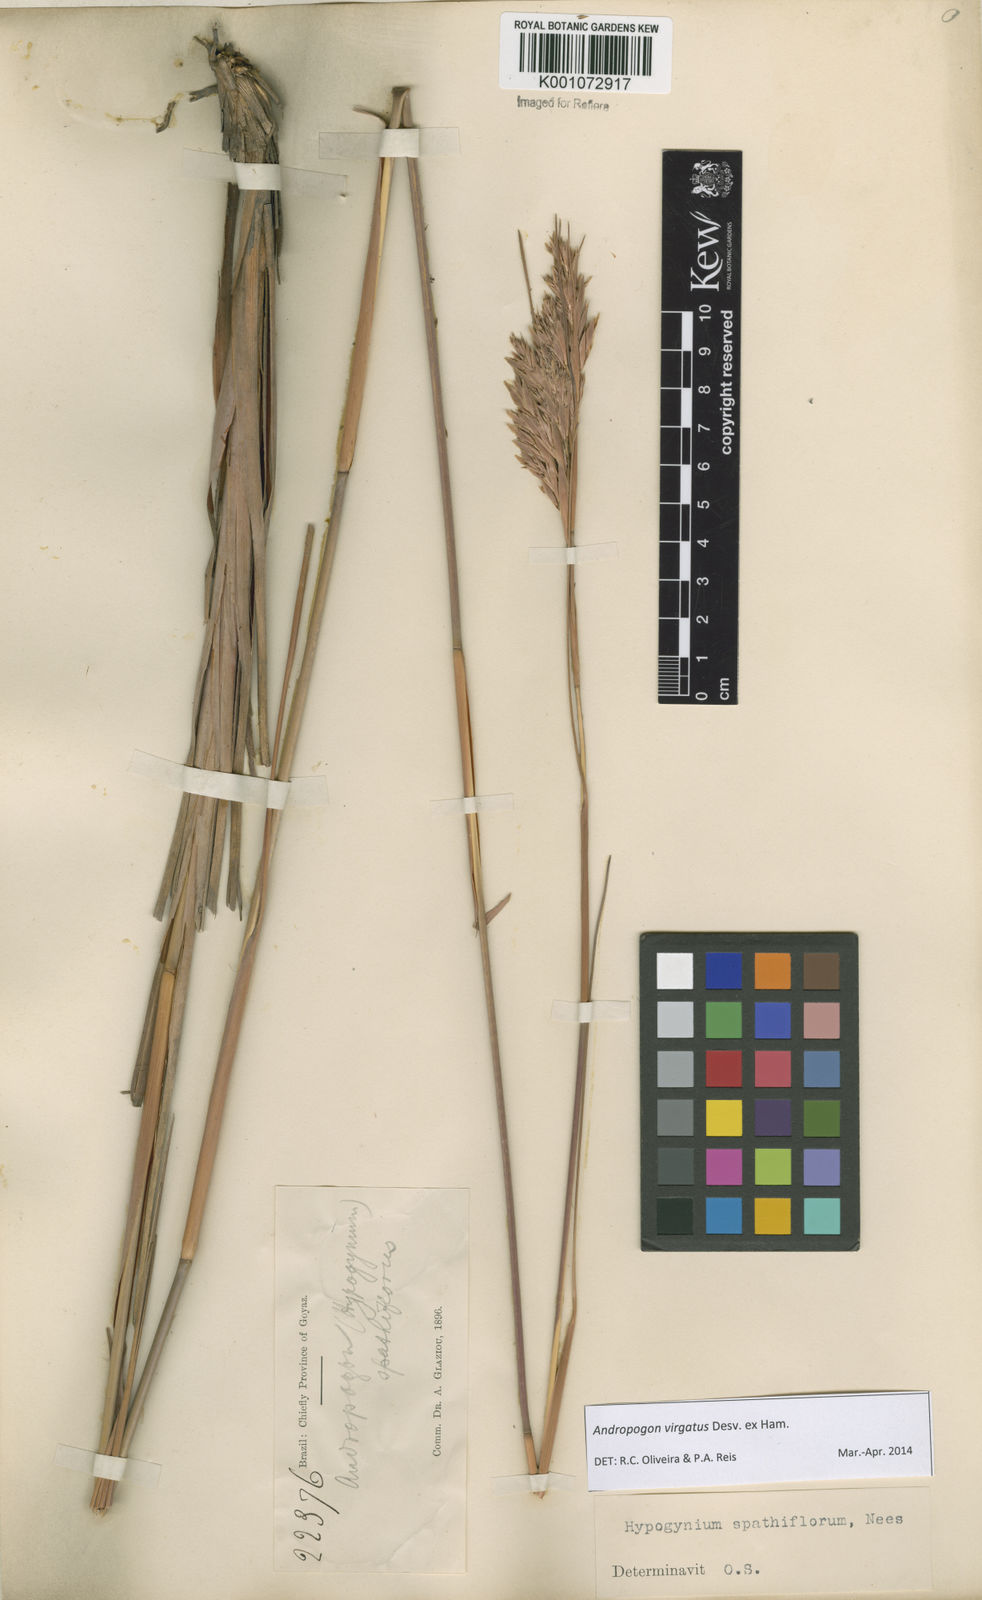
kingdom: Plantae
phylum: Tracheophyta
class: Liliopsida
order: Poales
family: Poaceae
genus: Andropogon
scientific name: Andropogon virgatus
